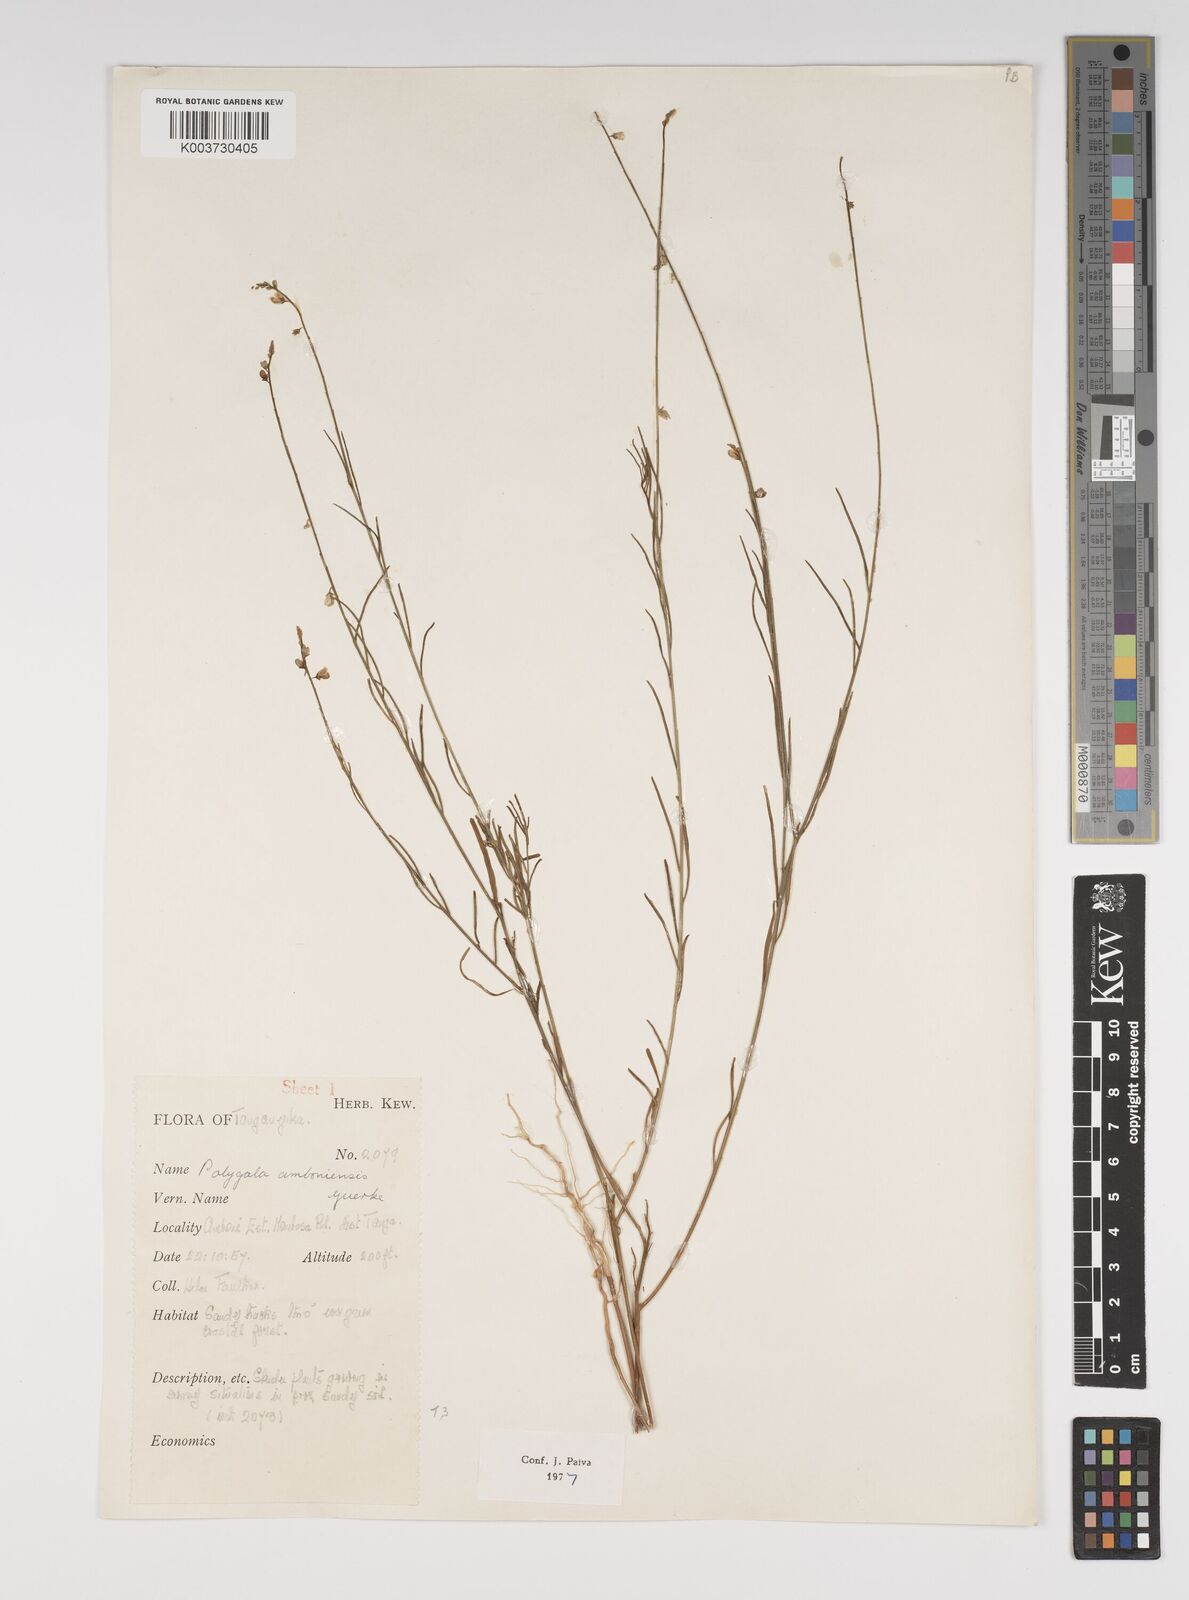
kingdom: Plantae
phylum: Tracheophyta
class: Magnoliopsida
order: Fabales
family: Polygalaceae
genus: Polygala
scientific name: Polygala amboniensis
